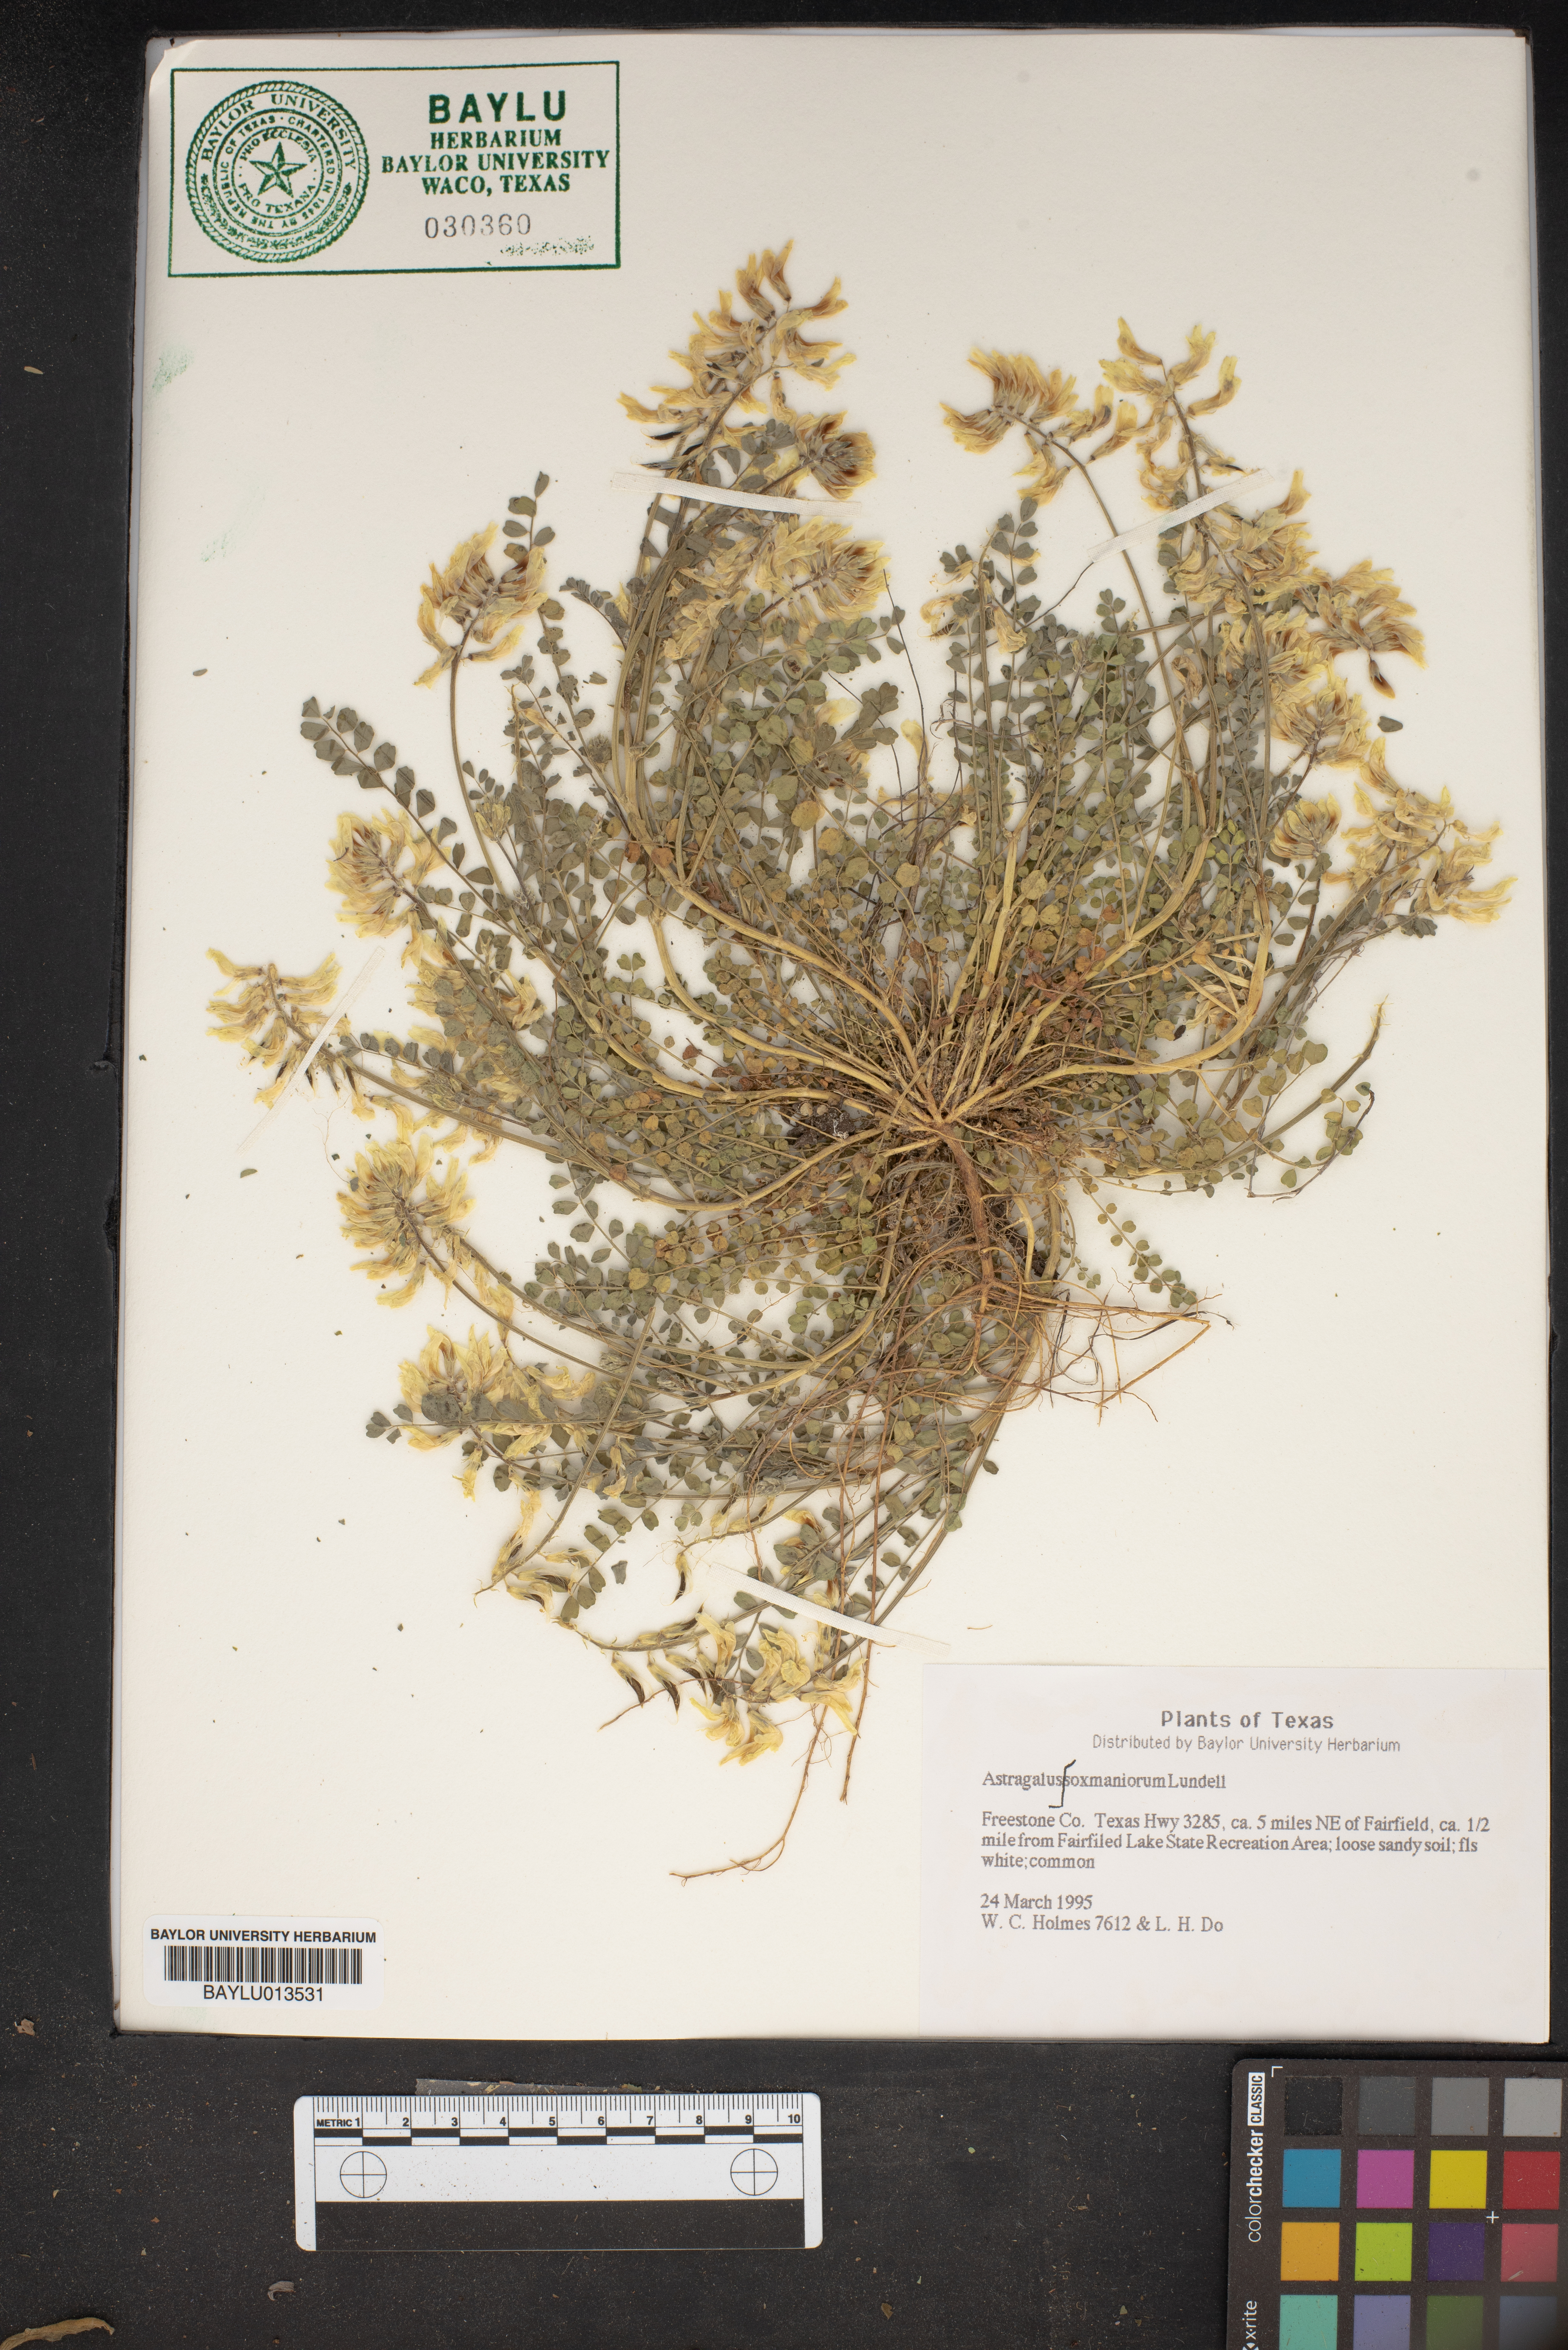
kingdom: Plantae
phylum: Tracheophyta
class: Magnoliopsida
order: Fabales
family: Fabaceae
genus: Astragalus
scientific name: Astragalus soxmaniorum
